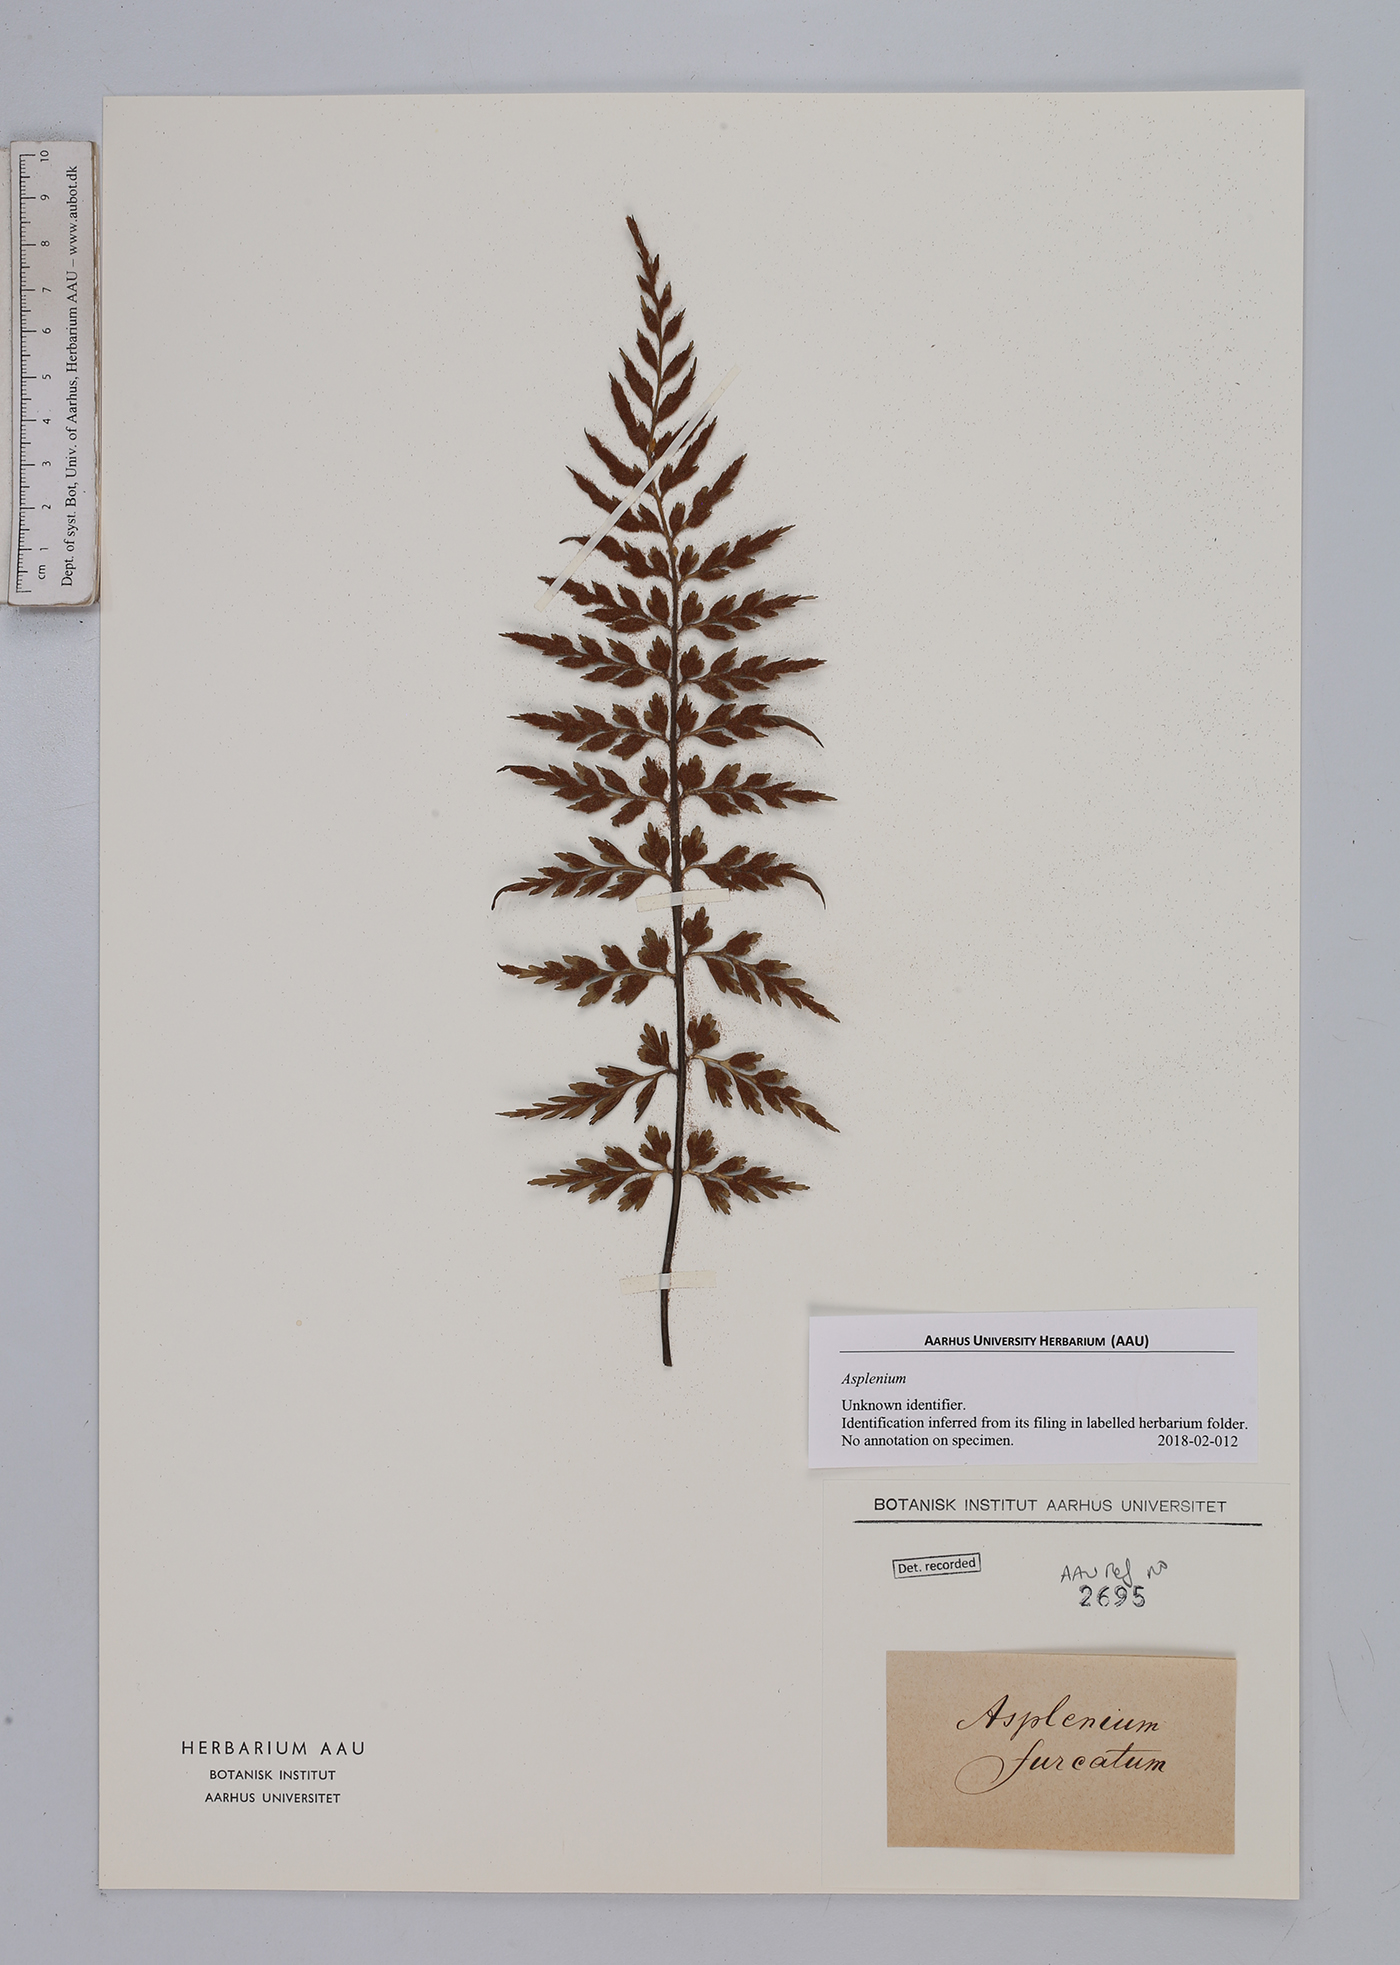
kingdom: Plantae
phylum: Tracheophyta
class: Polypodiopsida
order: Polypodiales
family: Aspleniaceae
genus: Asplenium
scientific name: Asplenium
